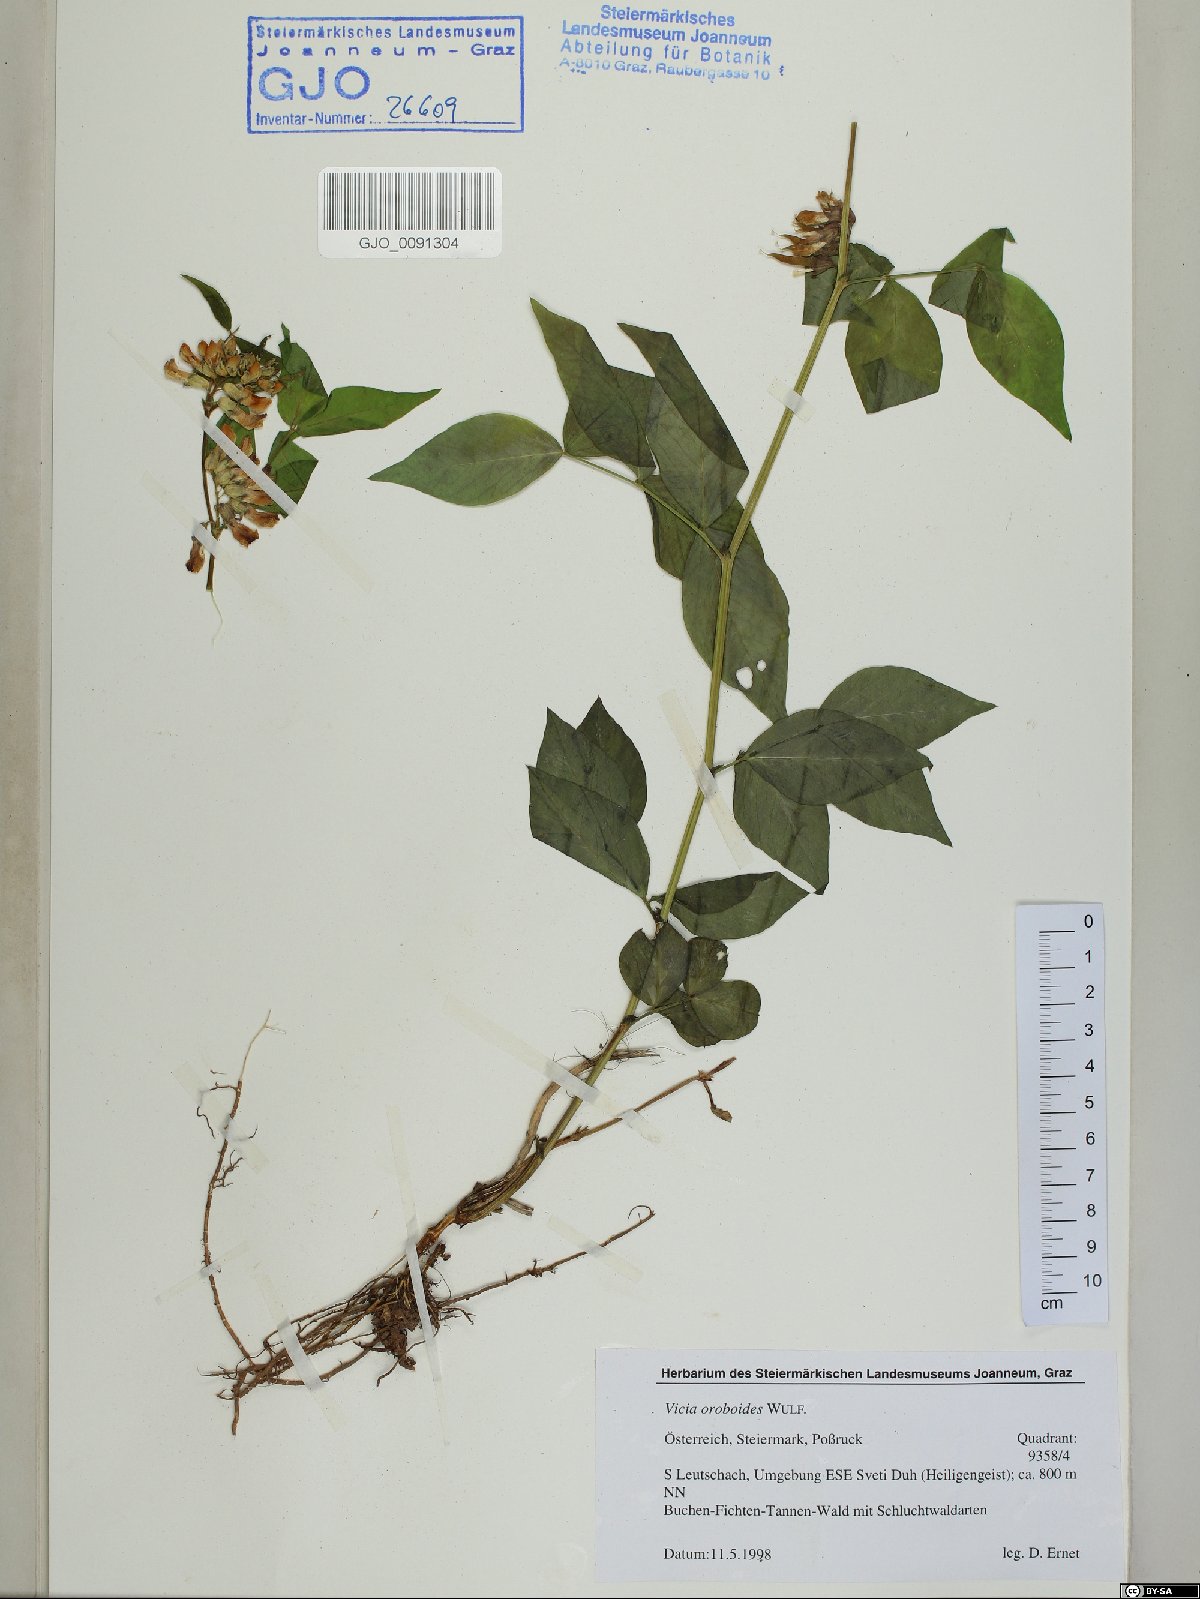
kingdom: Plantae
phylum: Tracheophyta
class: Magnoliopsida
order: Fabales
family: Fabaceae
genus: Vicia
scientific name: Vicia oroboides
